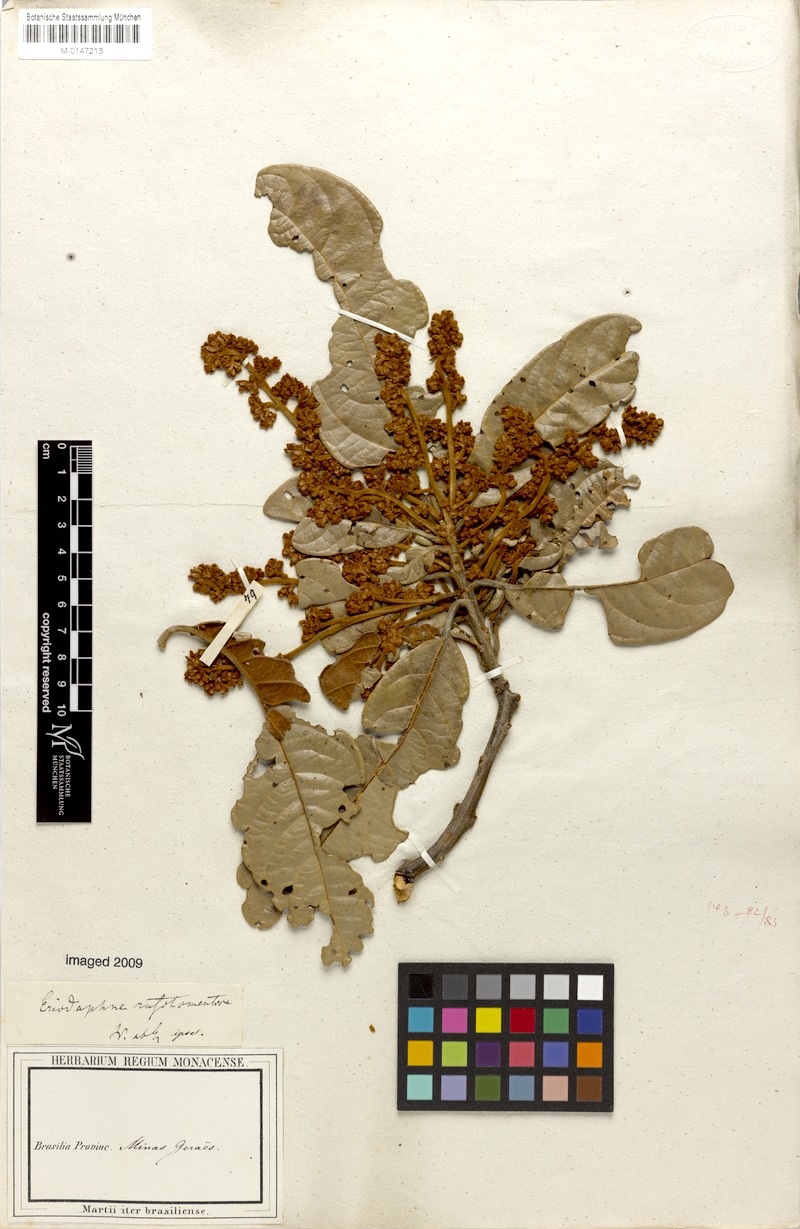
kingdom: Plantae
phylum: Tracheophyta
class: Magnoliopsida
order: Laurales
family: Lauraceae
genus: Persea
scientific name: Persea rufotomentosa
